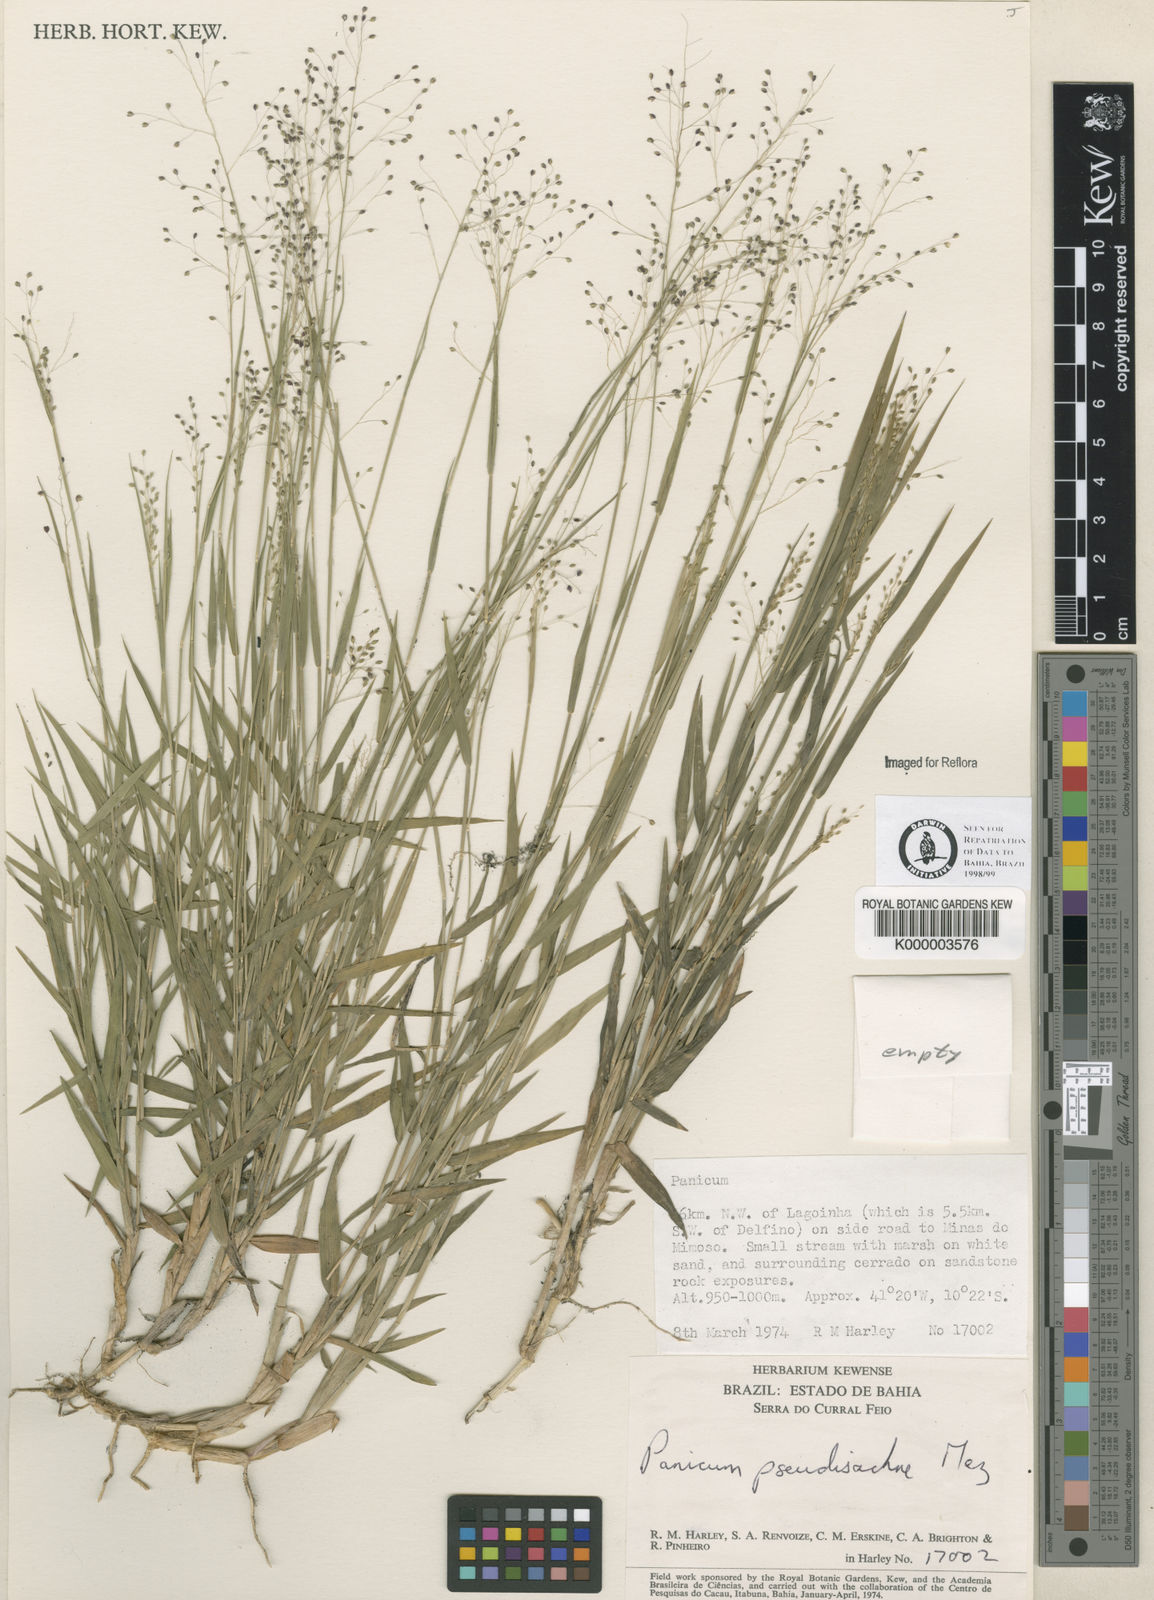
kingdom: Plantae
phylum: Tracheophyta
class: Liliopsida
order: Poales
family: Poaceae
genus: Trichanthecium
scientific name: Trichanthecium pseudisachne
